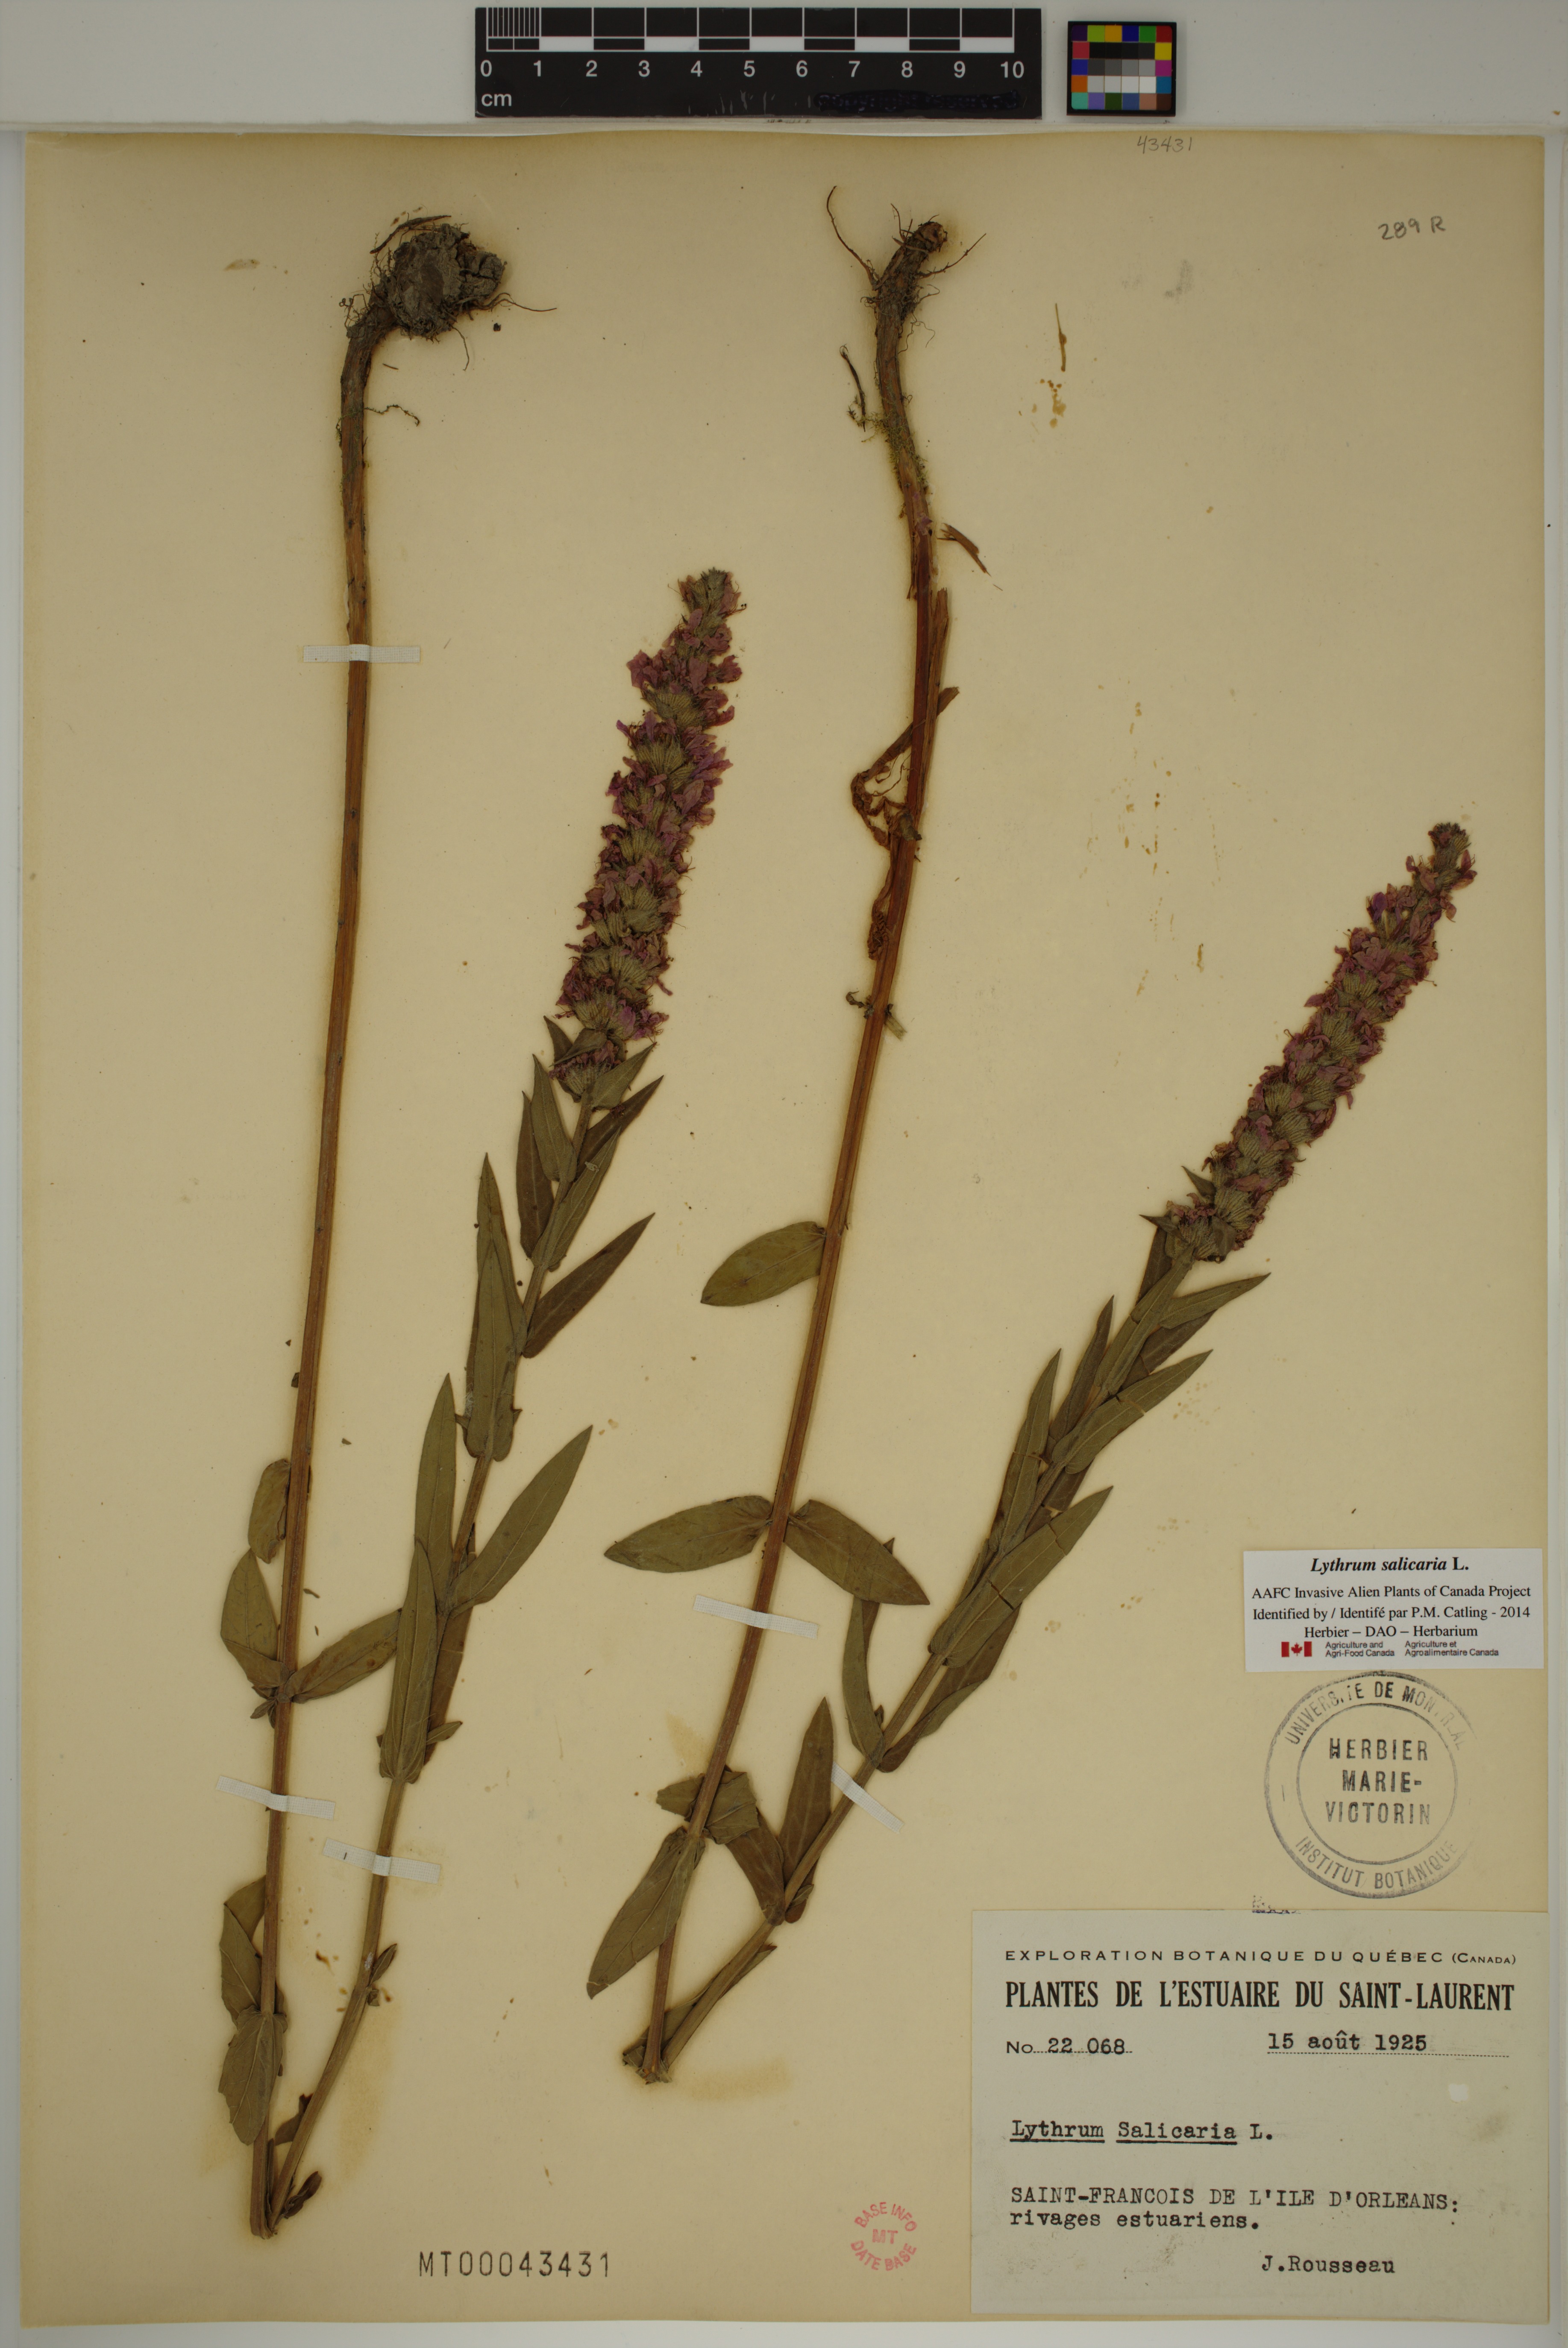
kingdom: Plantae
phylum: Tracheophyta
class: Magnoliopsida
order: Myrtales
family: Lythraceae
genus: Lythrum
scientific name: Lythrum salicaria
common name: Purple loosestrife
